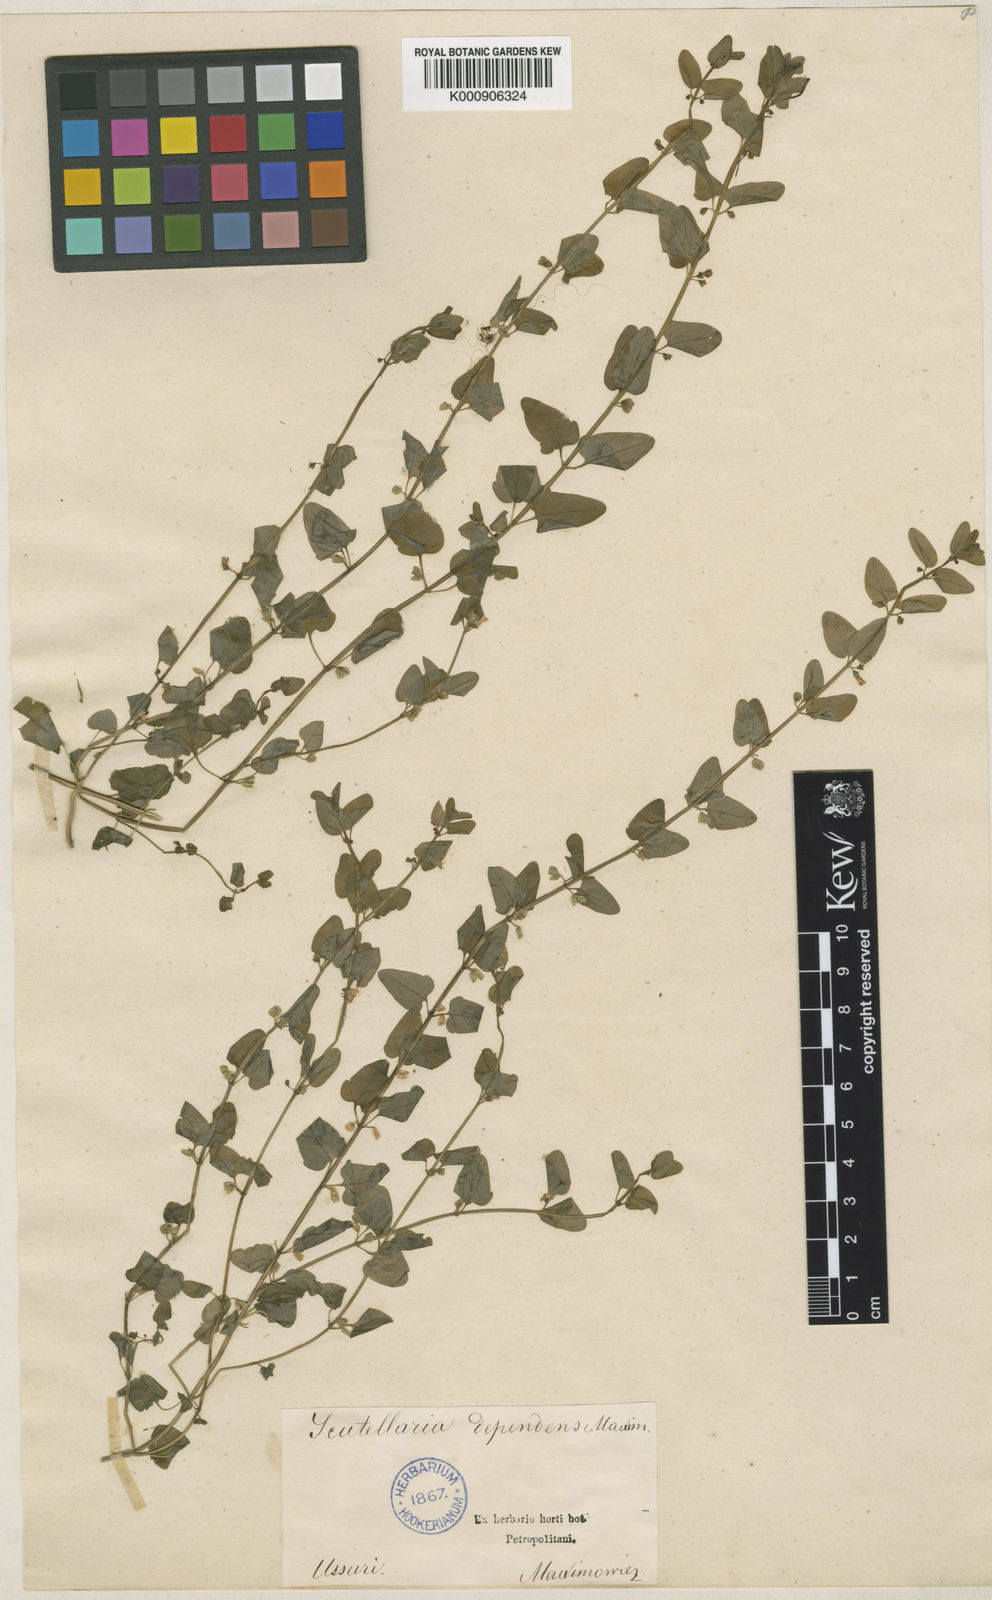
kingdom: Plantae
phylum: Tracheophyta
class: Magnoliopsida
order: Lamiales
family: Lamiaceae
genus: Scutellaria
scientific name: Scutellaria dependens
